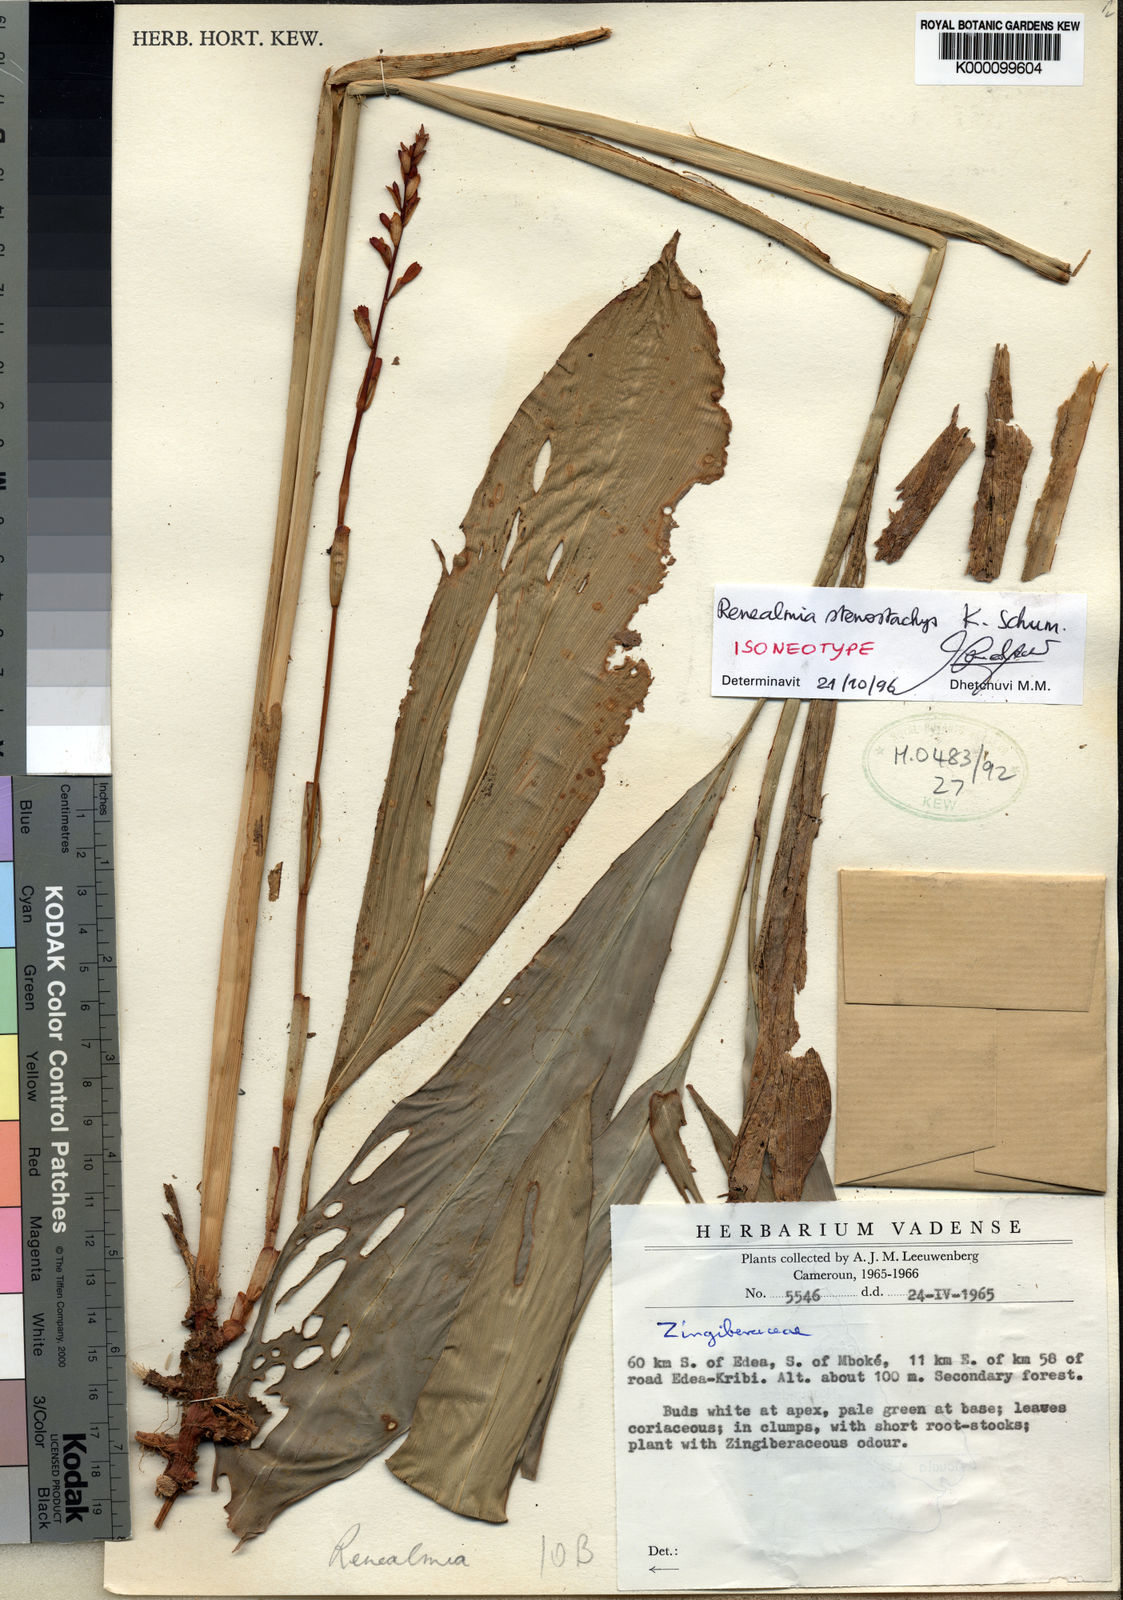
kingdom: Plantae
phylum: Tracheophyta
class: Liliopsida
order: Zingiberales
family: Zingiberaceae
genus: Renealmia
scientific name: Renealmia stenostachys
